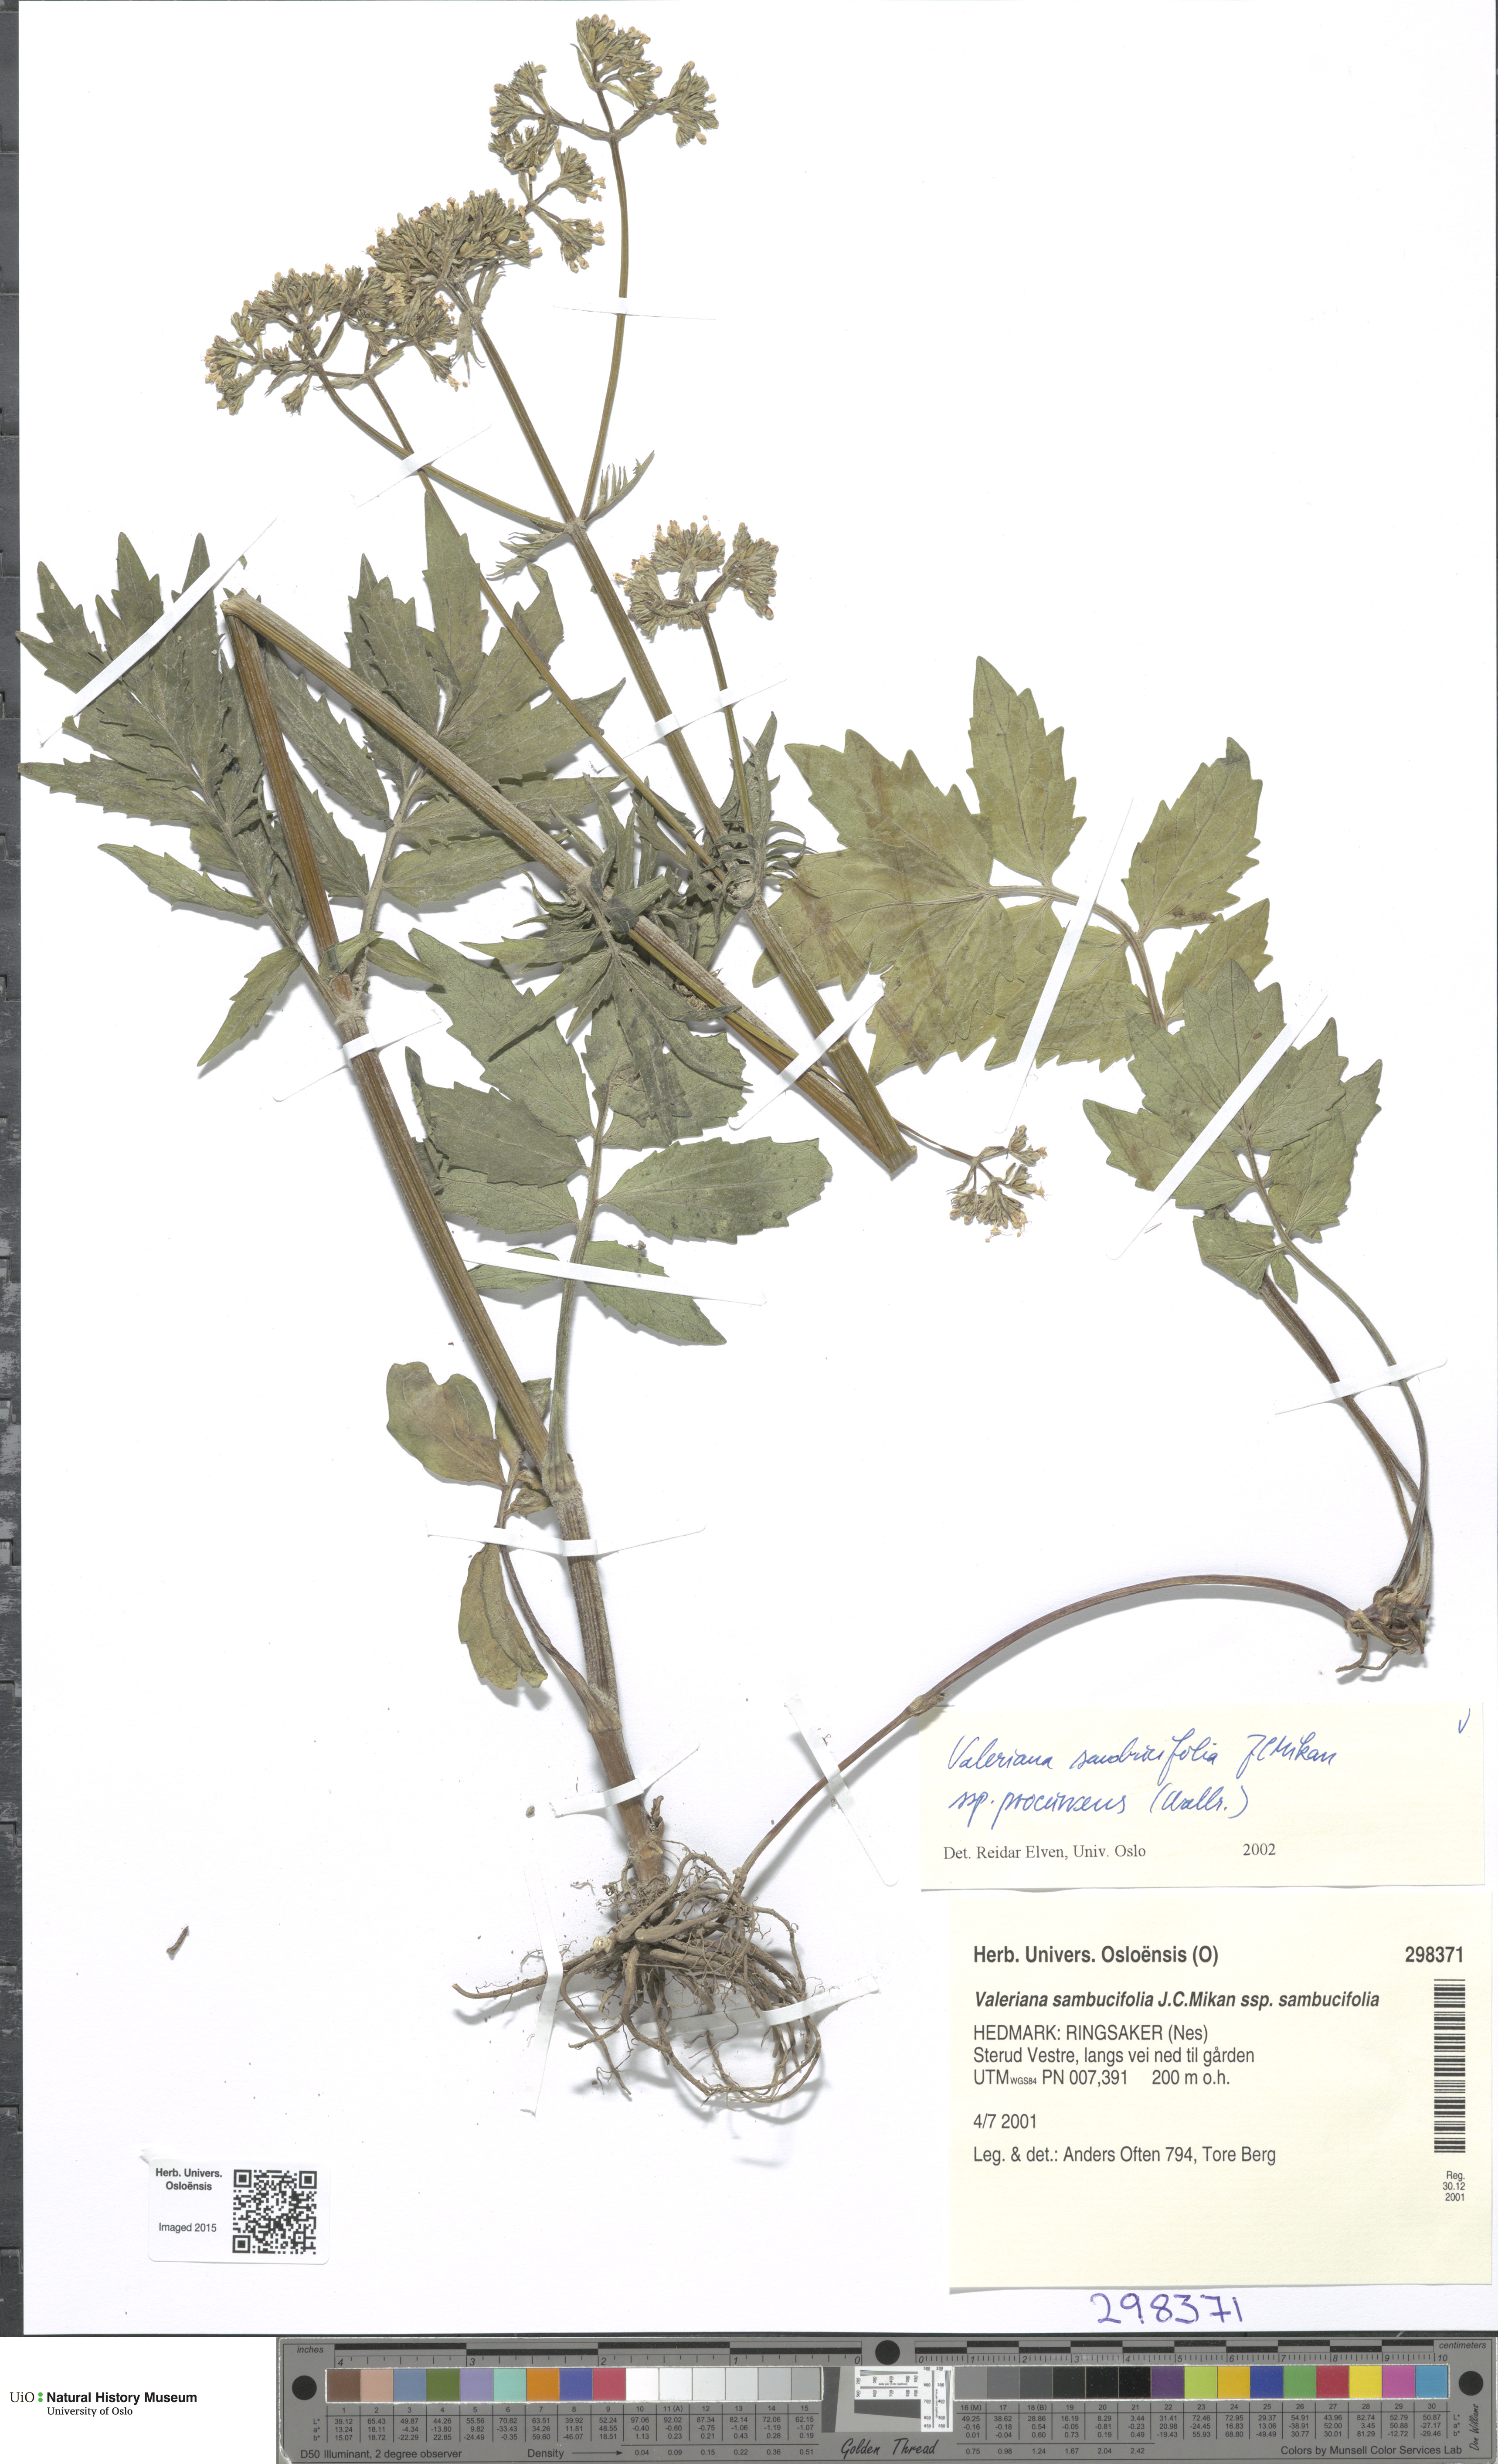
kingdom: Plantae
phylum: Tracheophyta
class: Magnoliopsida
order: Dipsacales
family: Caprifoliaceae
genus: Valeriana
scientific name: Valeriana excelsa
